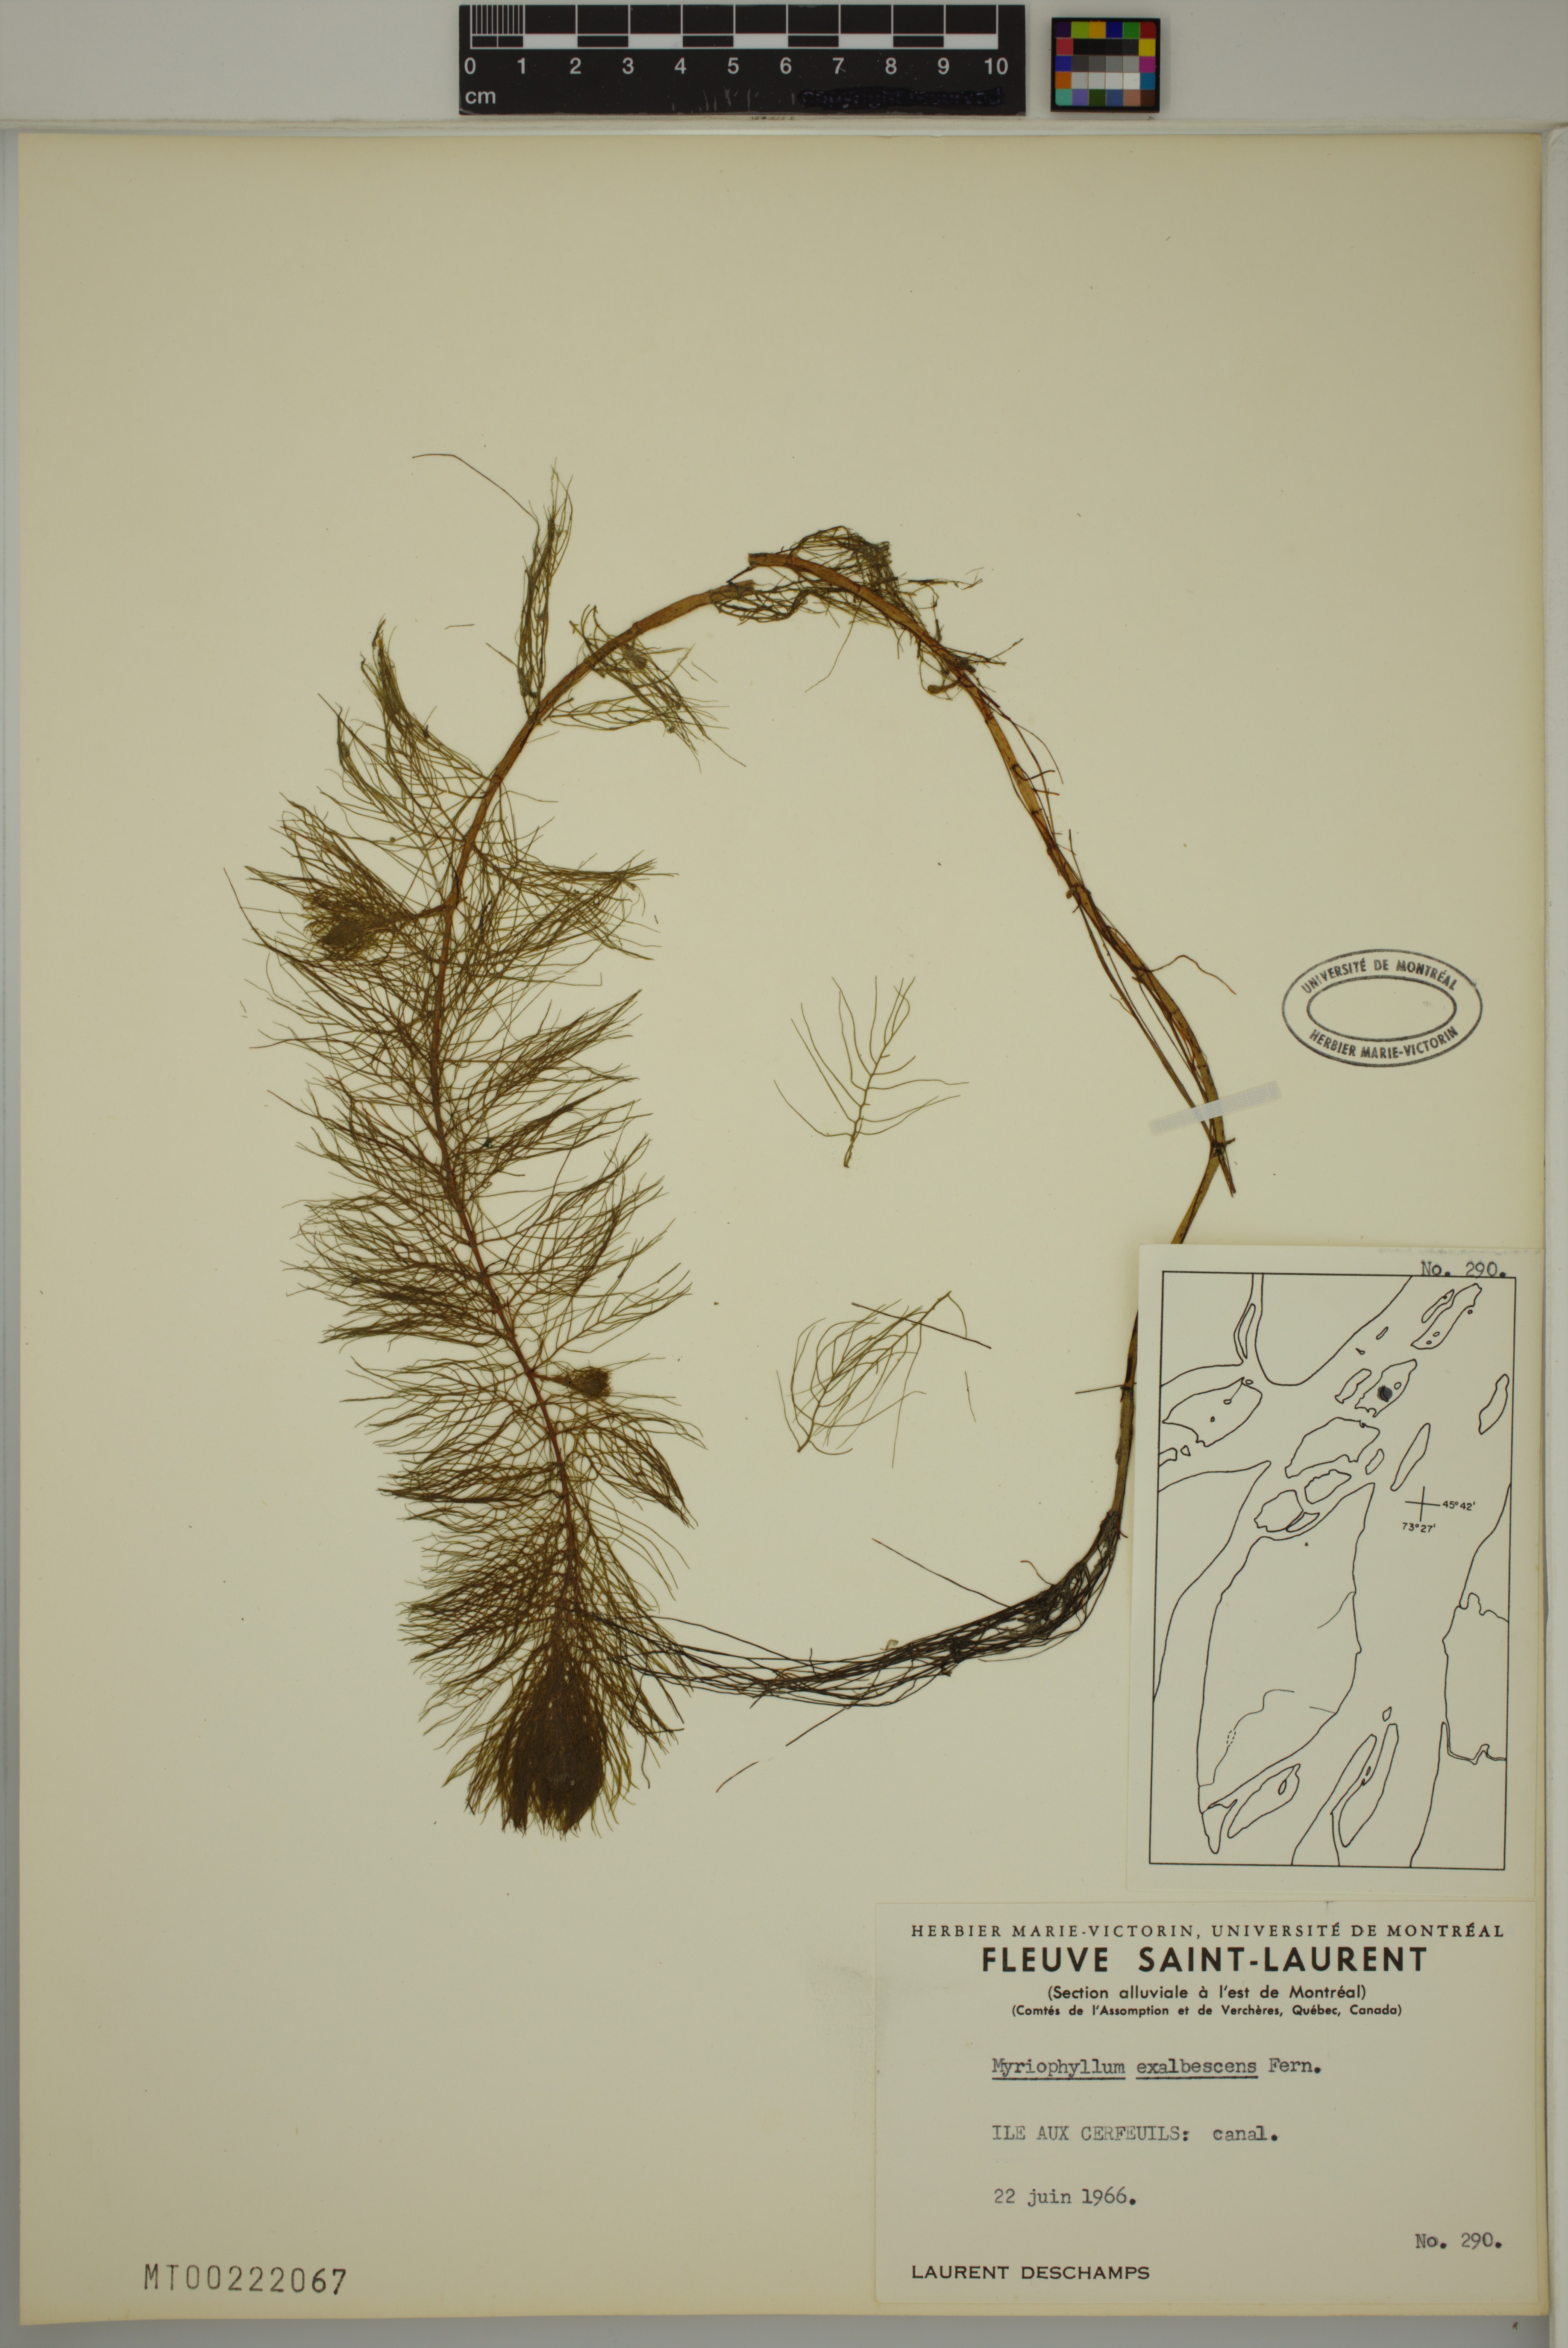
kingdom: Plantae
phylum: Tracheophyta
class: Magnoliopsida
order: Saxifragales
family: Haloragaceae
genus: Myriophyllum
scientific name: Myriophyllum sibiricum
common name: Siberian water-milfoil
